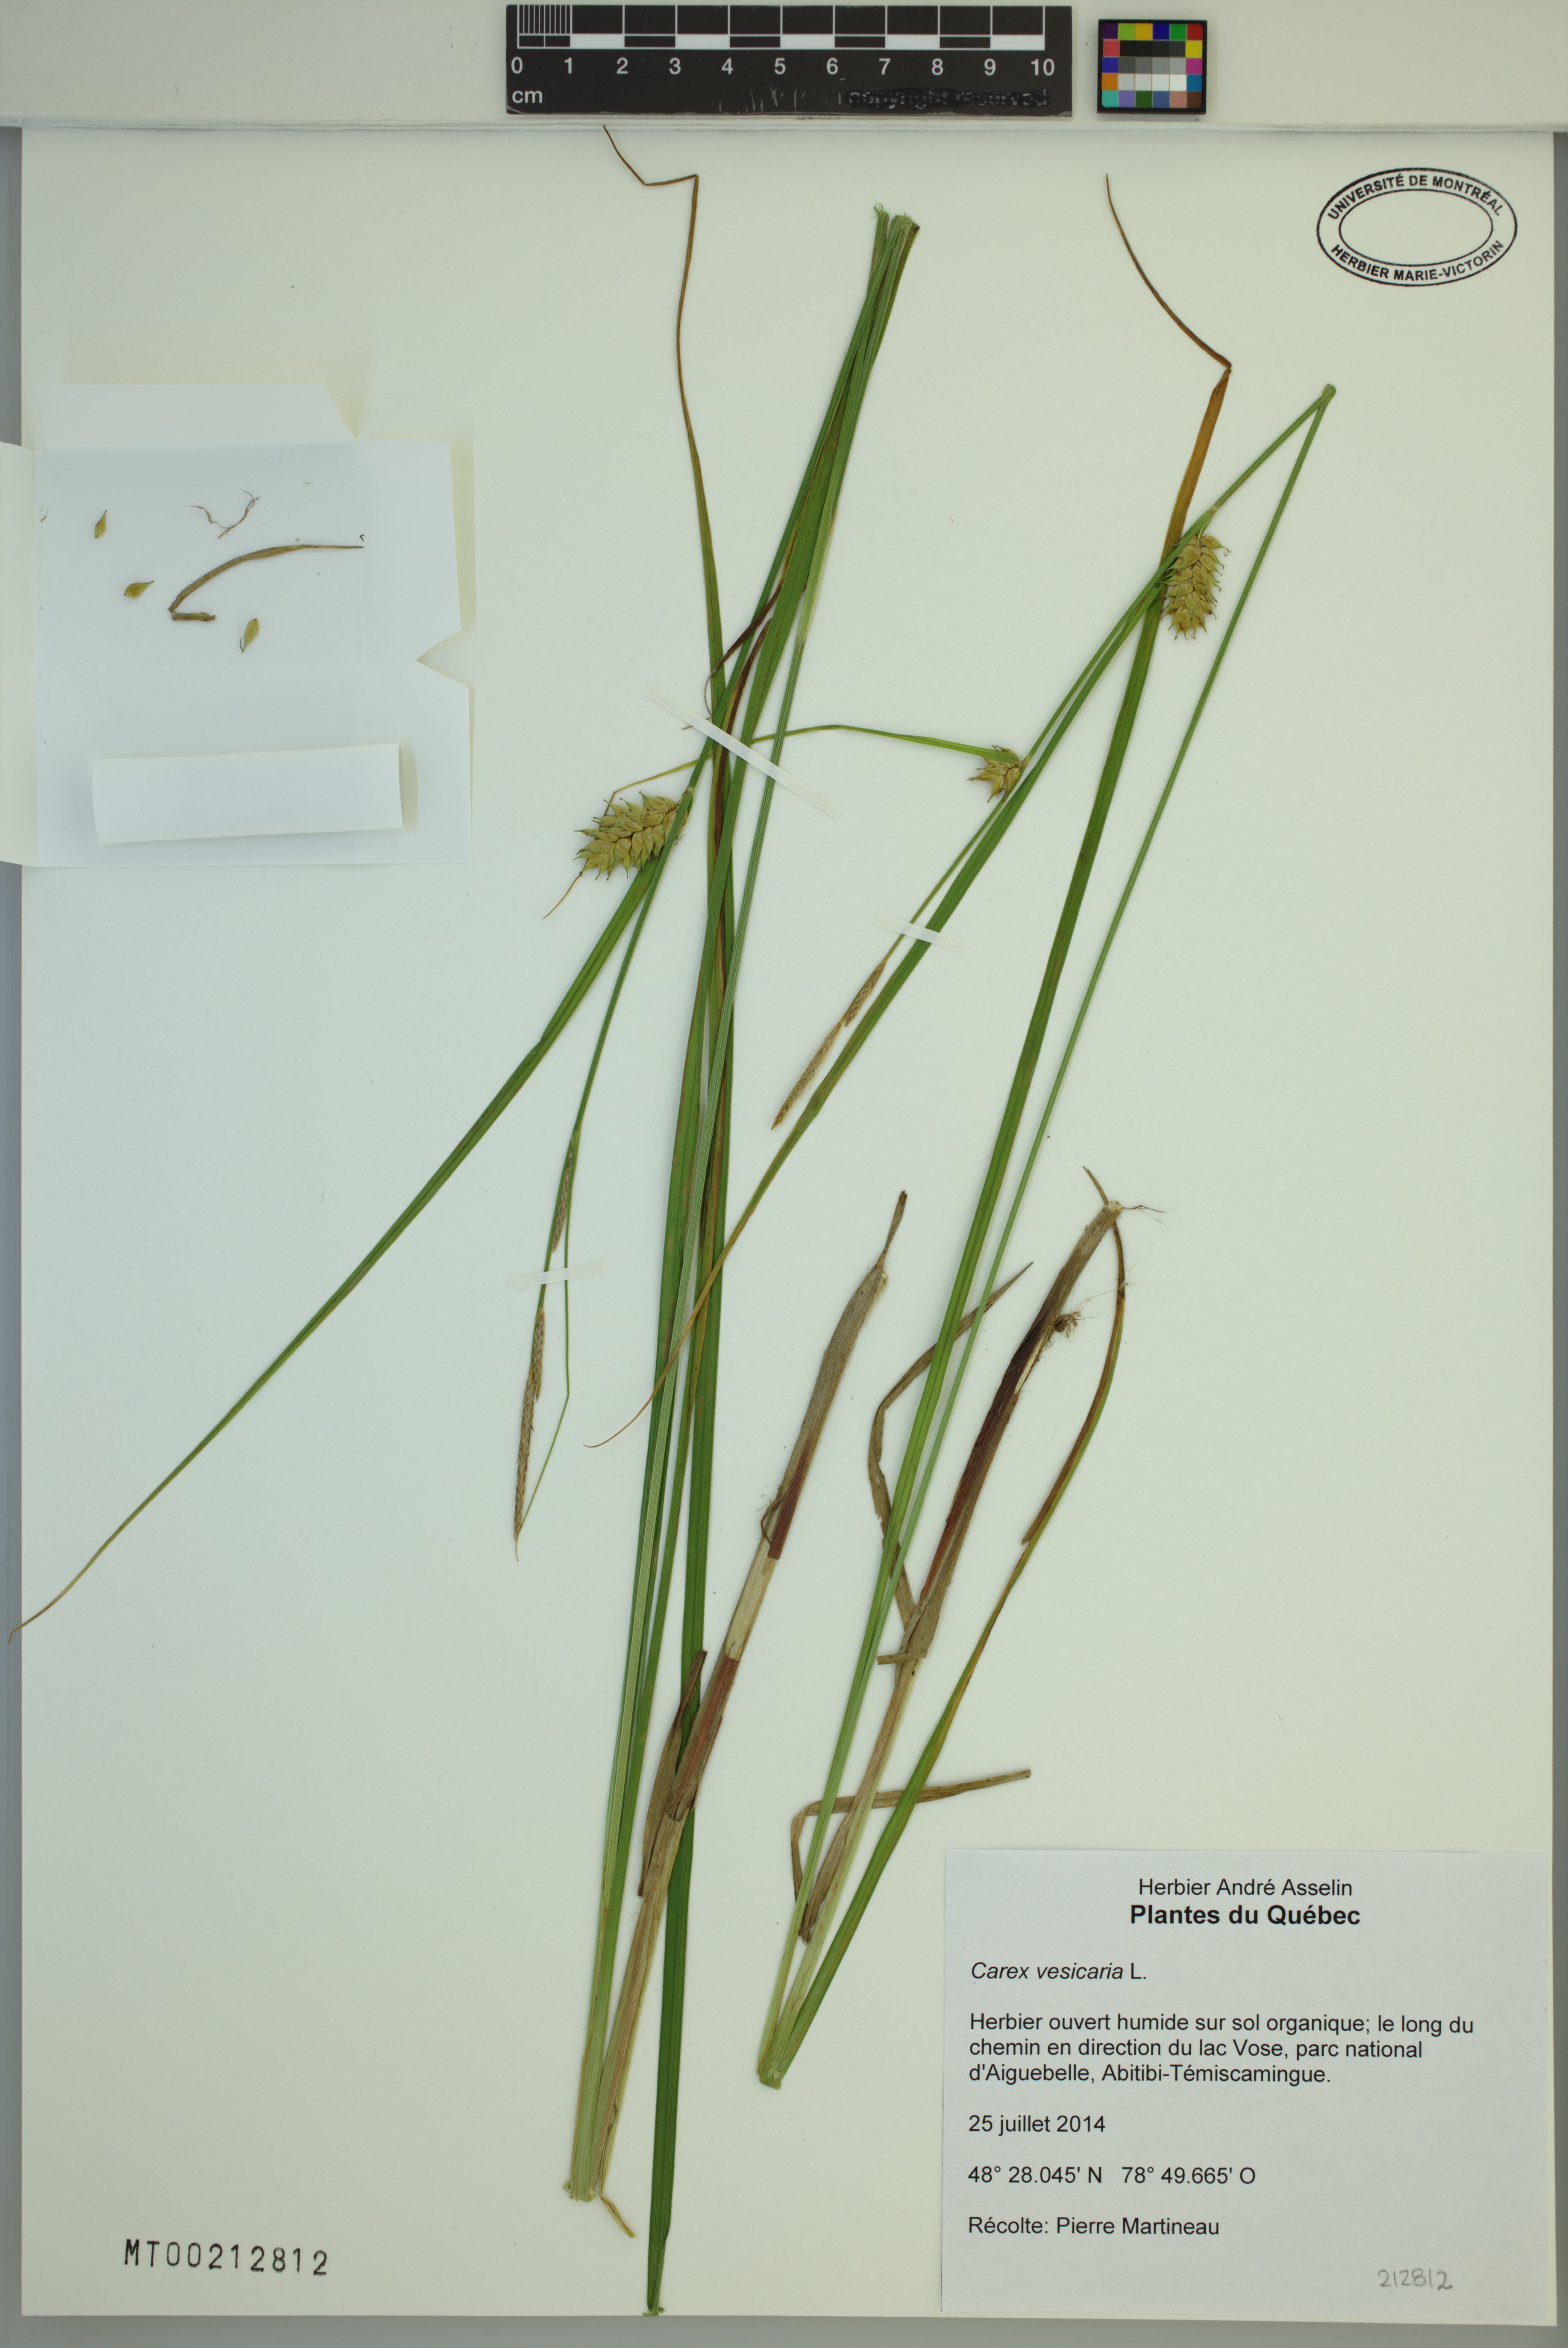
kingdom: Plantae
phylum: Tracheophyta
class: Liliopsida
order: Poales
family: Cyperaceae
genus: Carex
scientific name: Carex vesicaria
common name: Bladder-sedge
